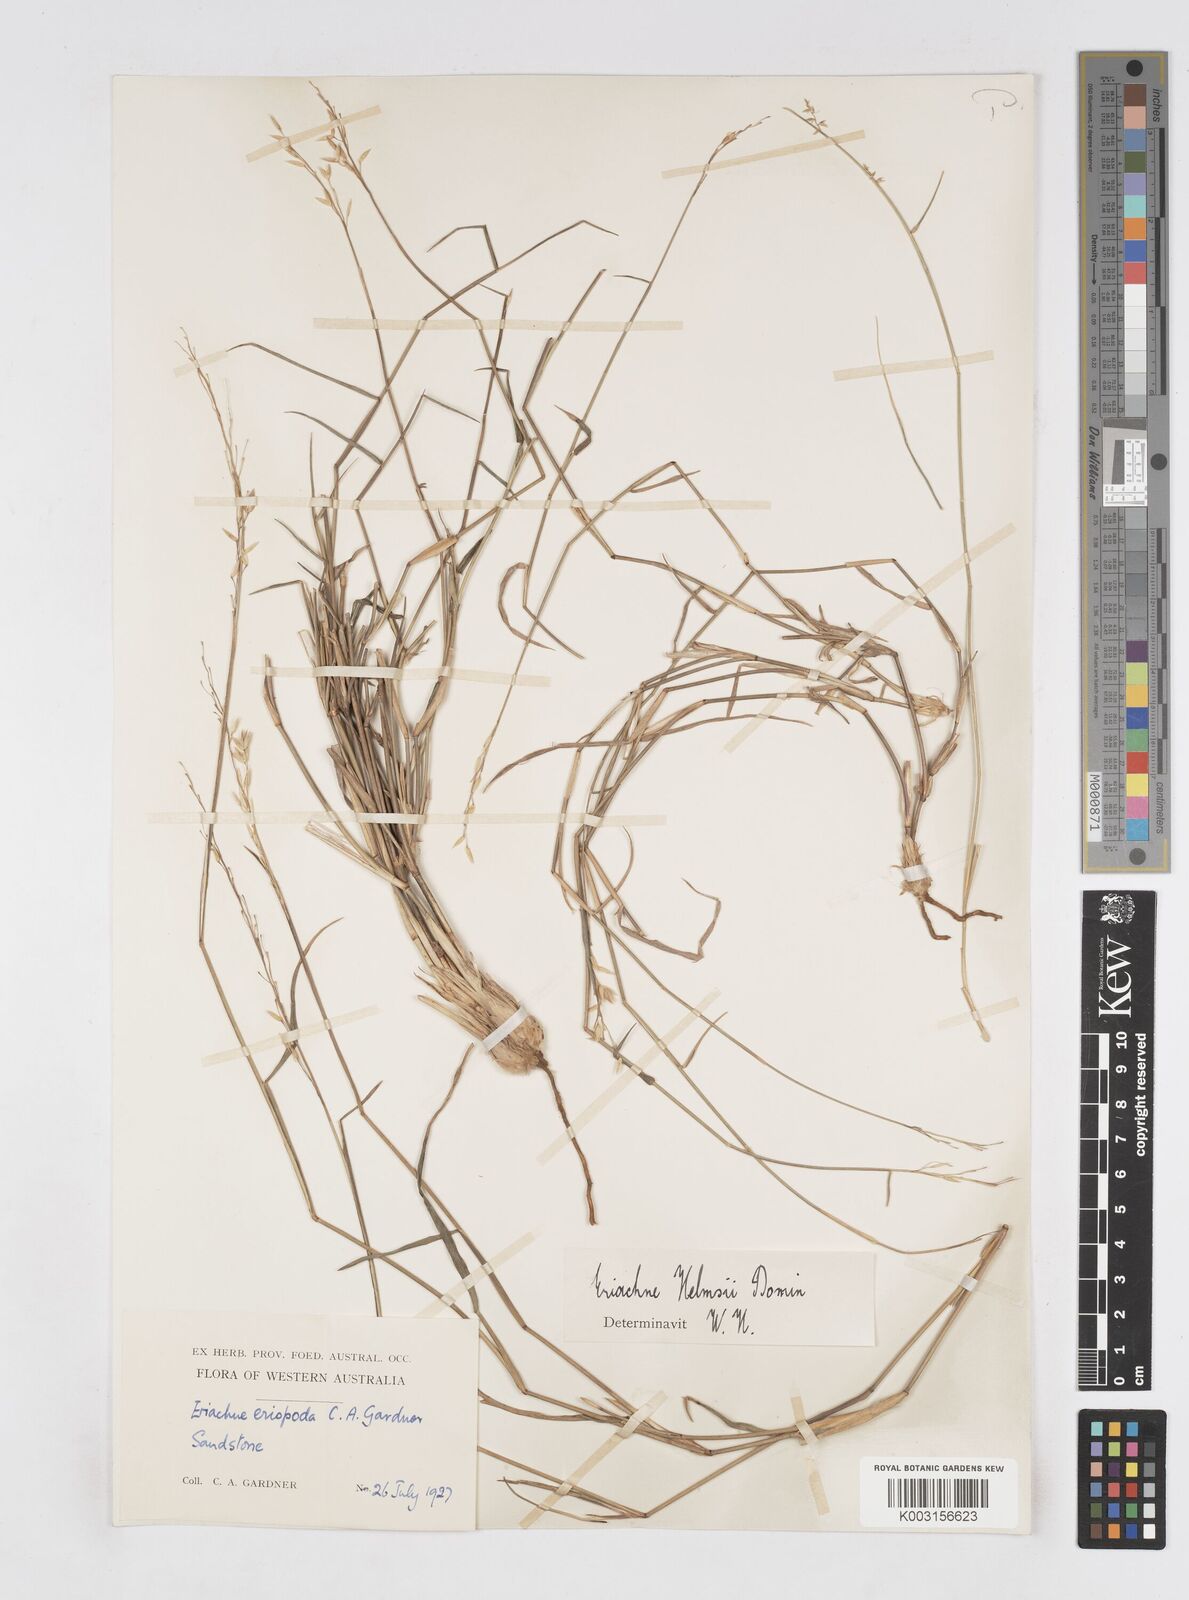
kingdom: Plantae
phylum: Tracheophyta
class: Liliopsida
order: Poales
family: Poaceae
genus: Eriachne
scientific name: Eriachne helmsii
